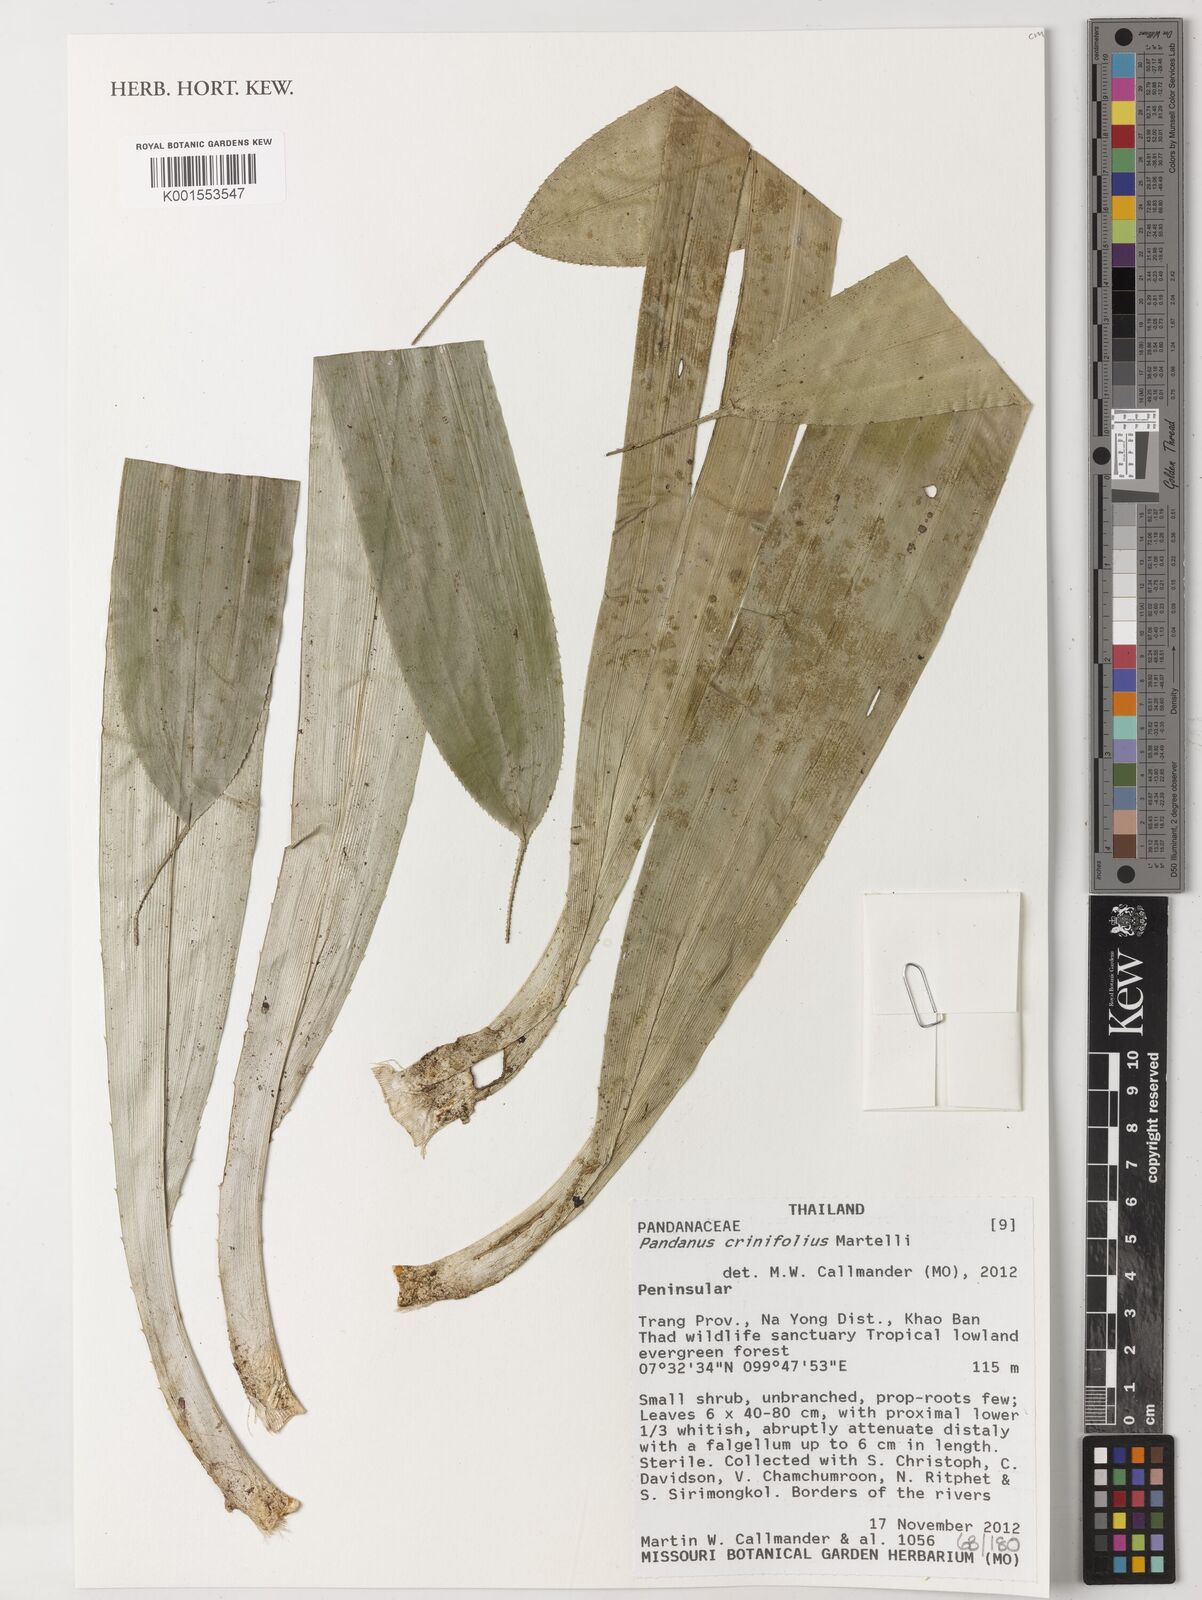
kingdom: Plantae
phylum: Tracheophyta
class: Liliopsida
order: Pandanales
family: Pandanaceae
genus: Pandanus
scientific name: Pandanus crinifolius
